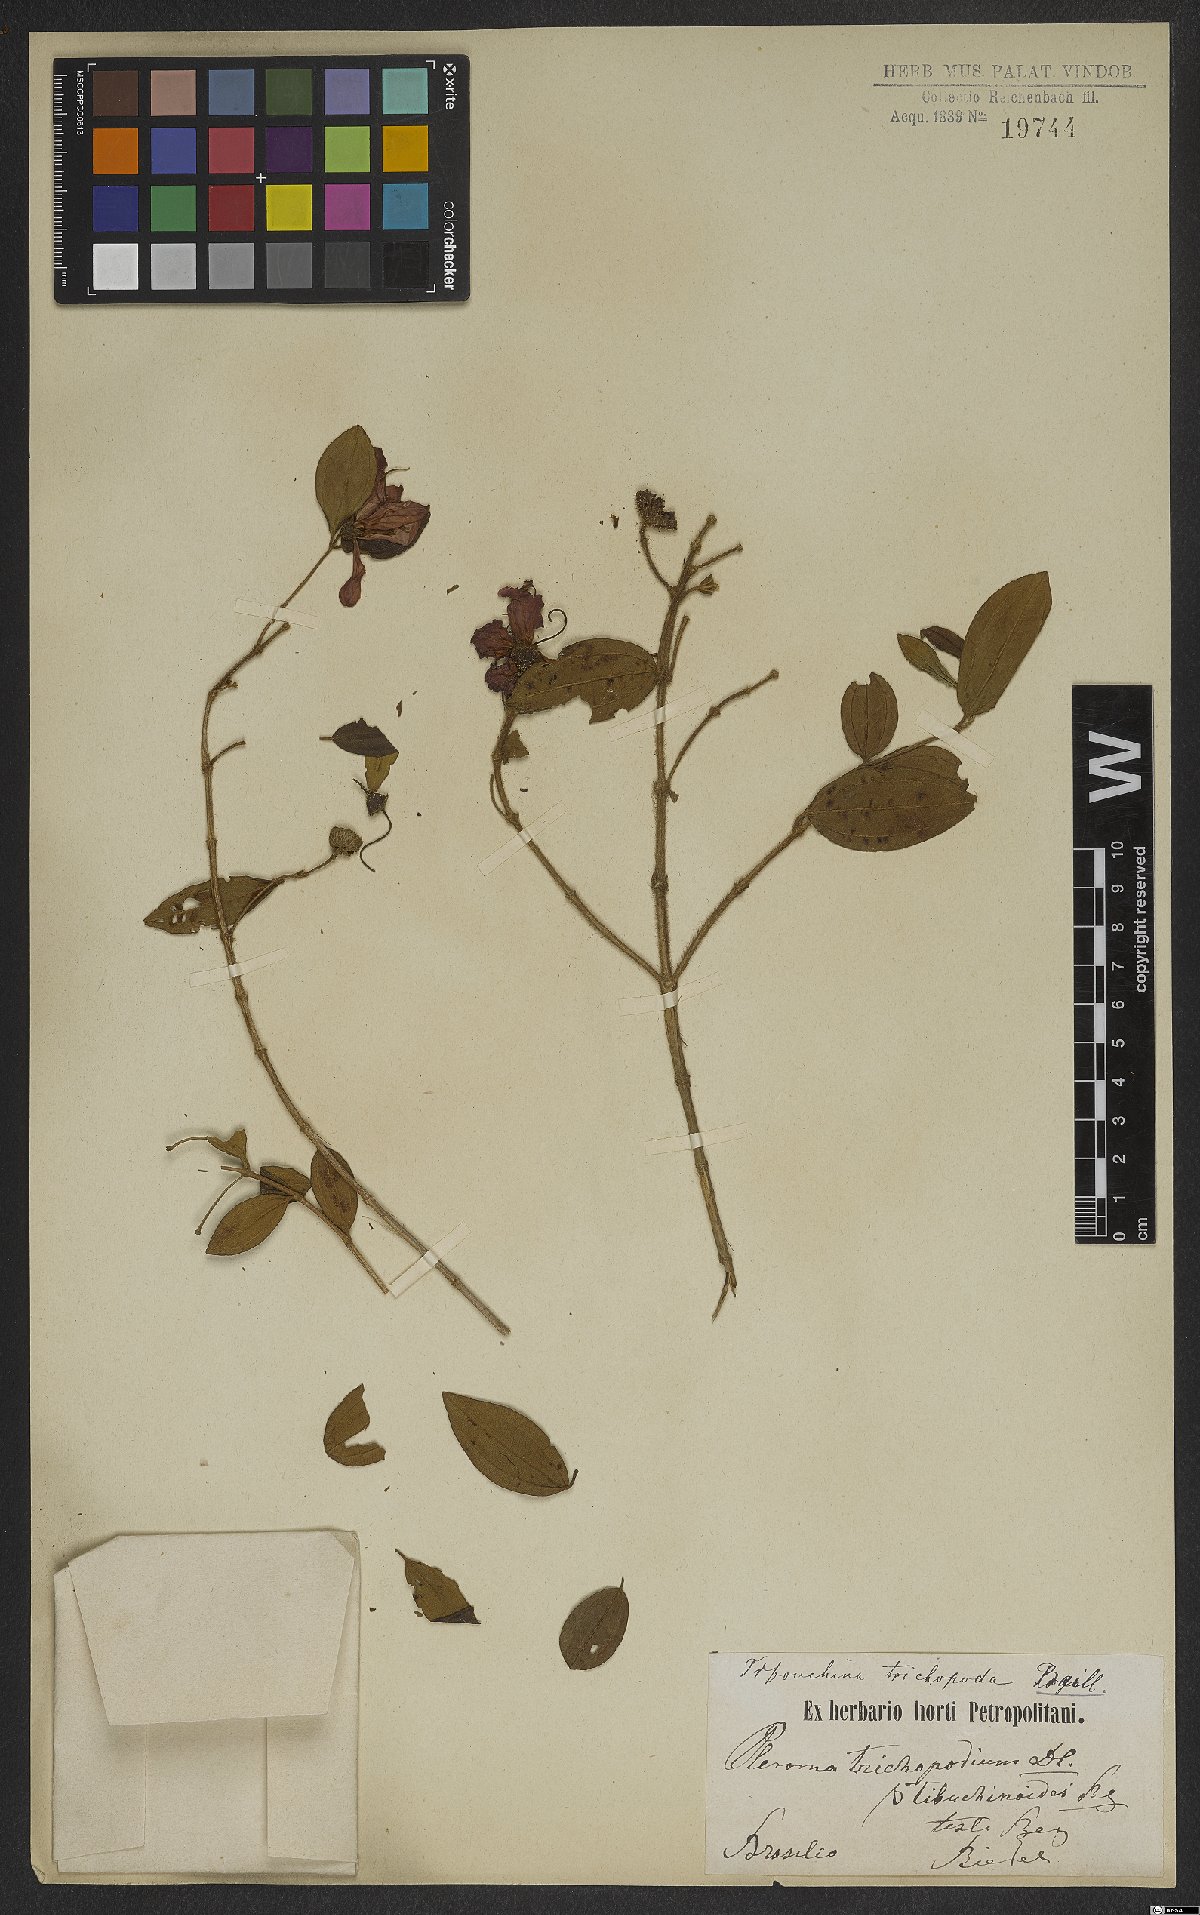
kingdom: Plantae
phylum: Tracheophyta
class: Magnoliopsida
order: Myrtales
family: Melastomataceae
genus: Pleroma
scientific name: Pleroma trichopodum
